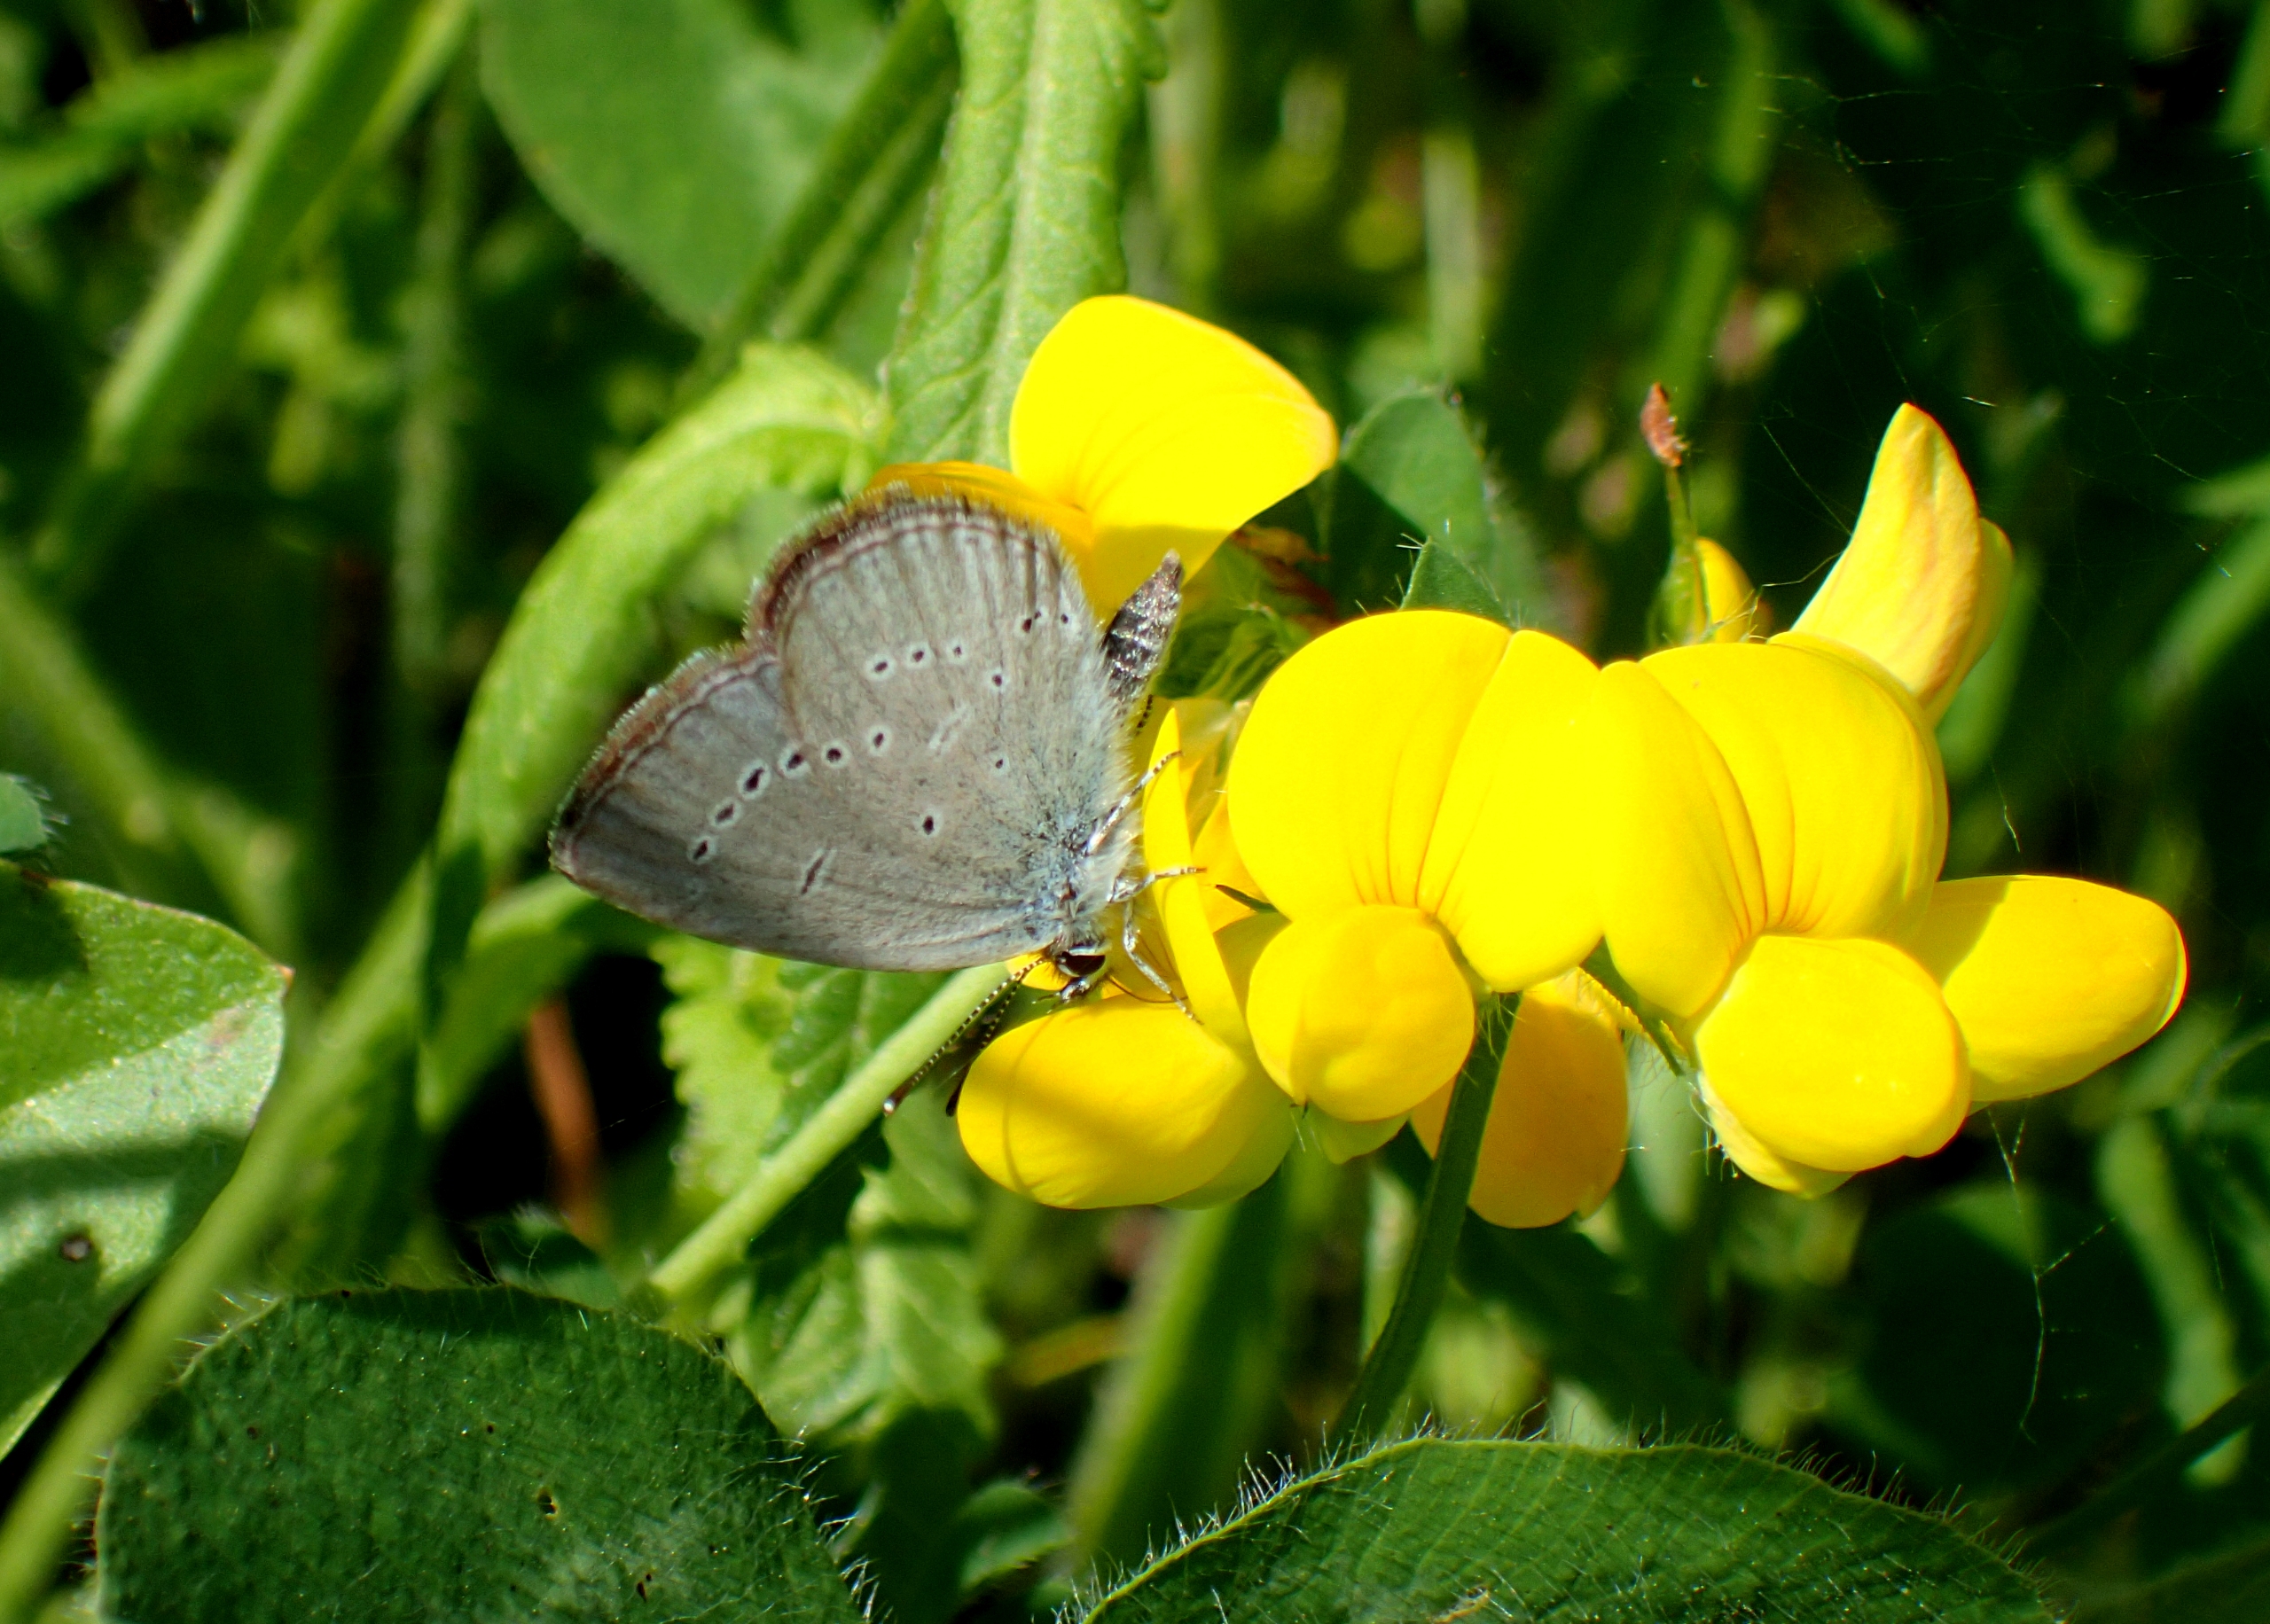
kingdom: Animalia
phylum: Arthropoda
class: Insecta
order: Lepidoptera
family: Lycaenidae
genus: Cupido
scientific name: Cupido minimus
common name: Dværgblåfugl
